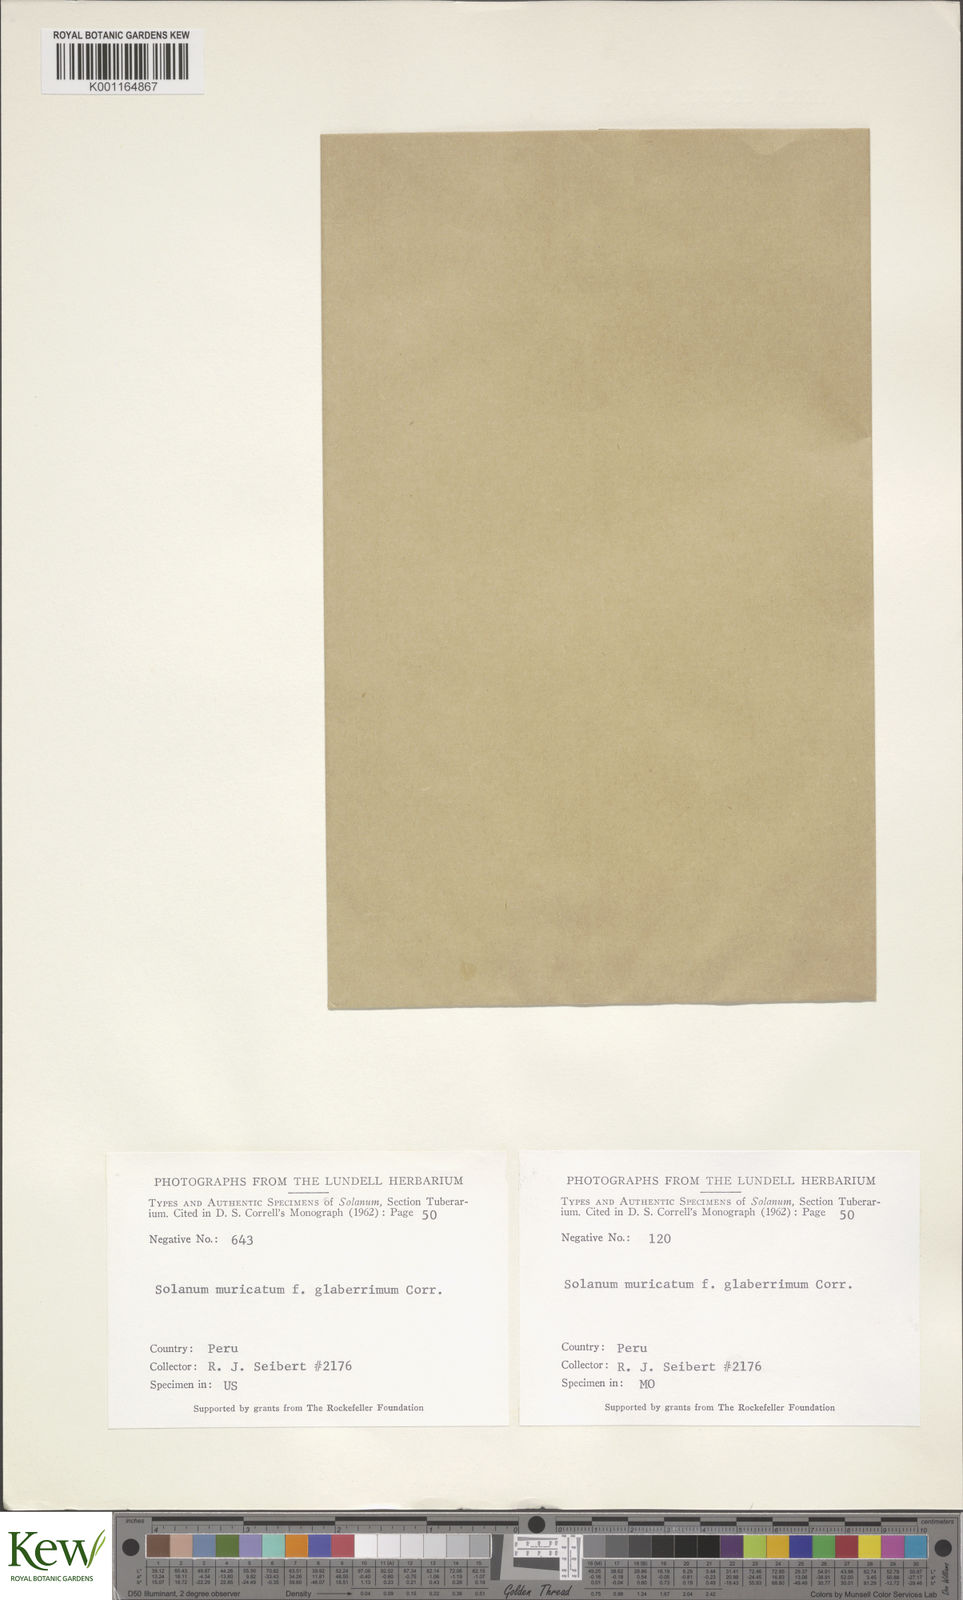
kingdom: Plantae
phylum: Tracheophyta
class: Magnoliopsida
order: Solanales
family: Solanaceae
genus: Solanum
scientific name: Solanum muricatum
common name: Peruvian pepino
